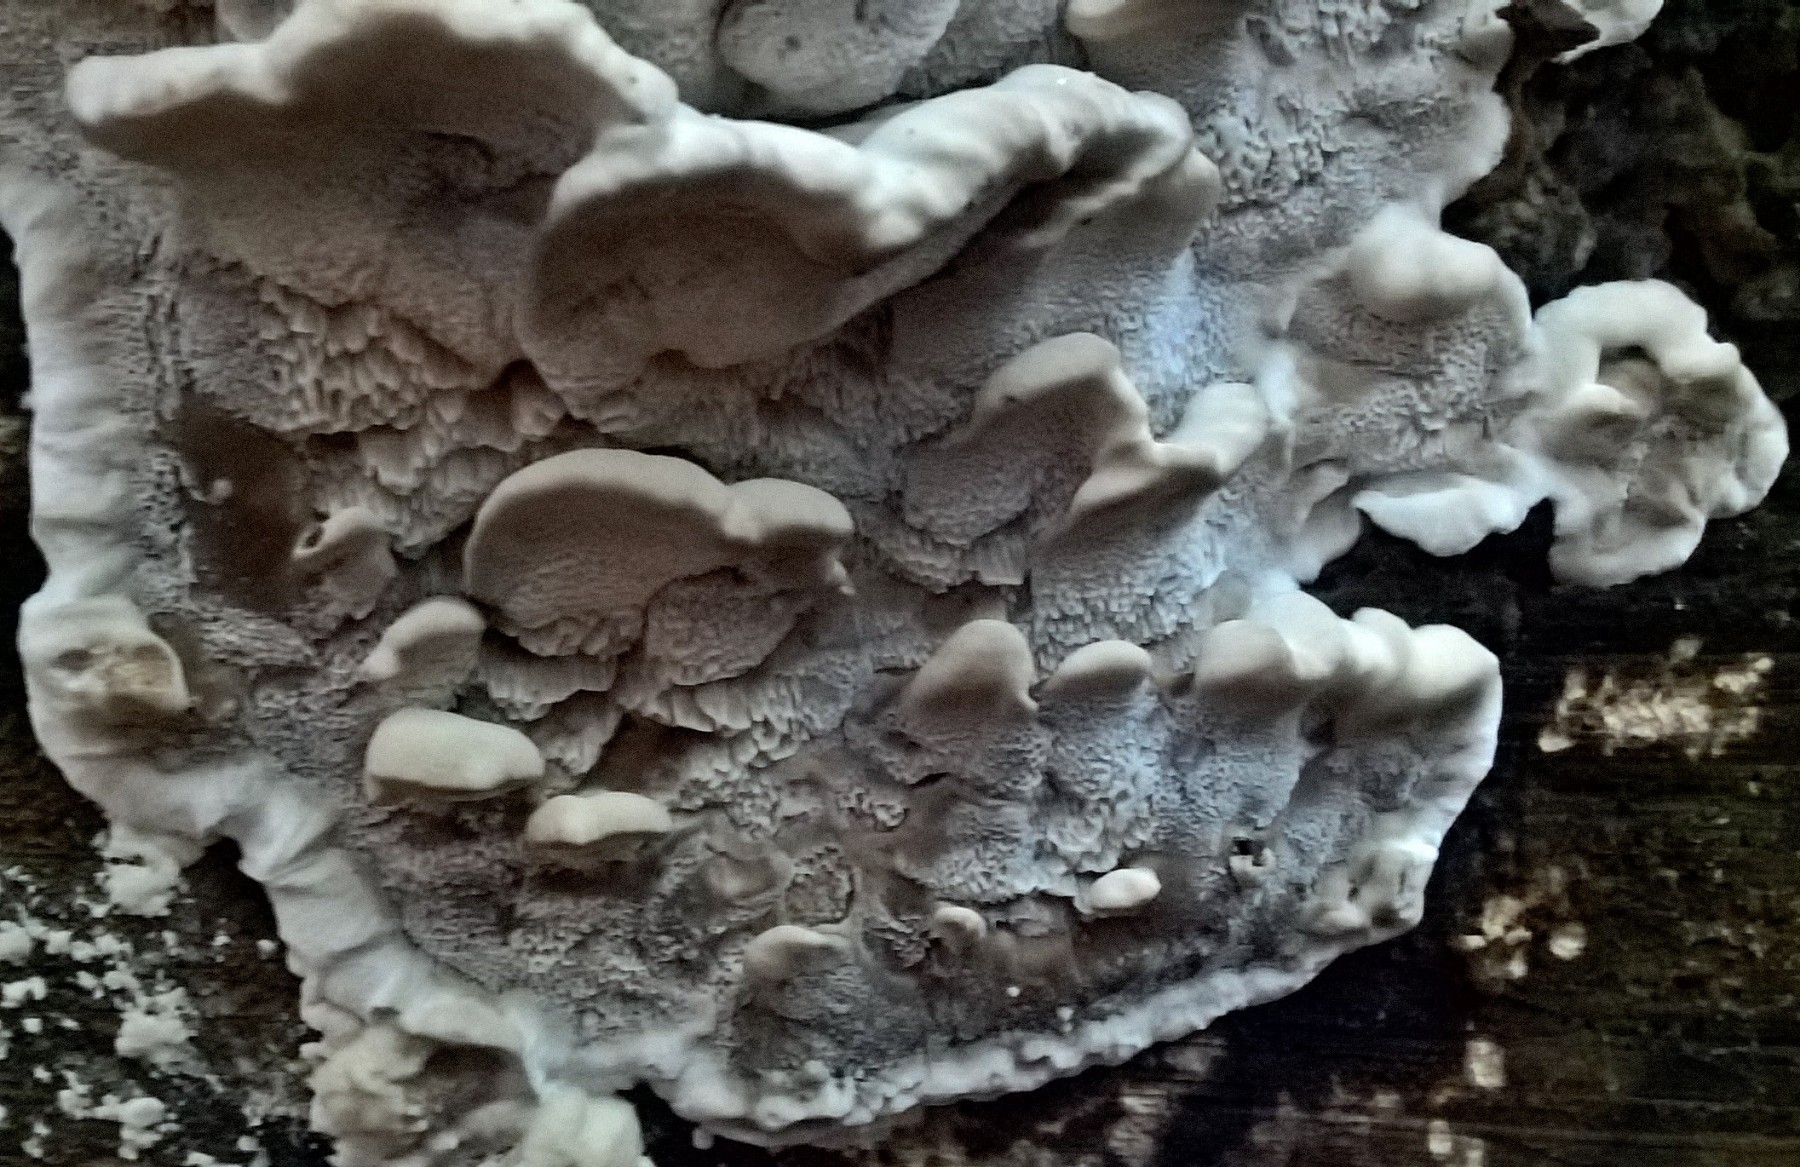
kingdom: Fungi
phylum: Basidiomycota
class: Agaricomycetes
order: Polyporales
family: Phanerochaetaceae
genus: Bjerkandera
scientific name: Bjerkandera fumosa
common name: grågul sodporesvamp
